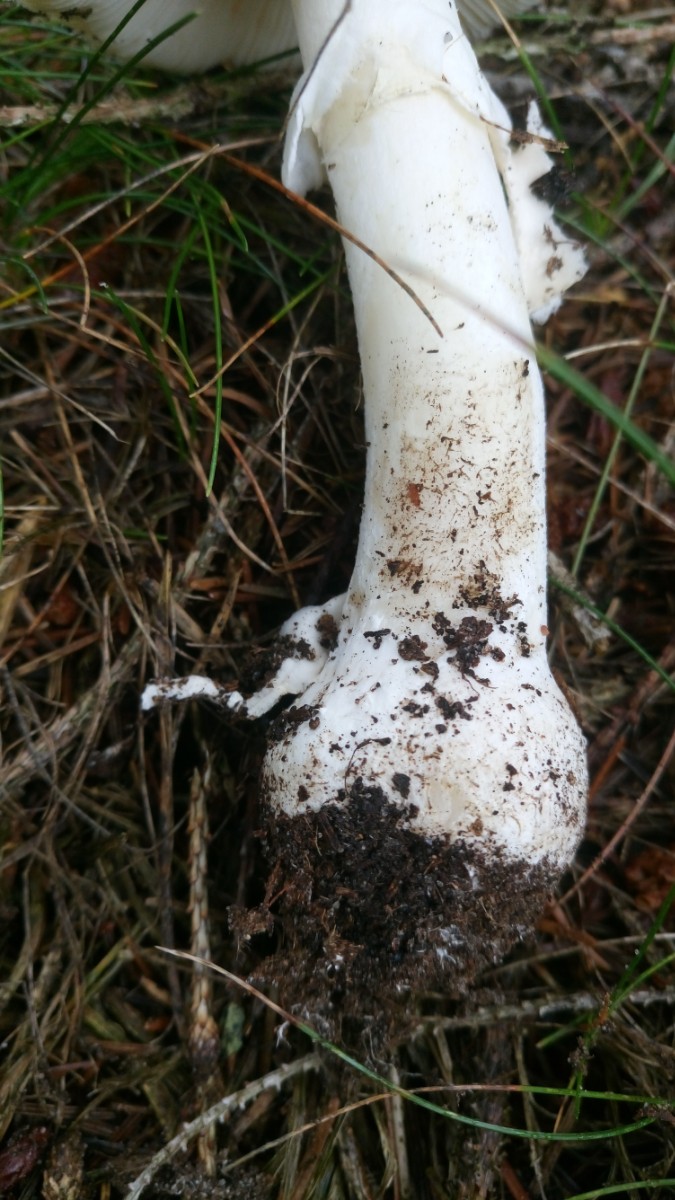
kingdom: Fungi
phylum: Basidiomycota
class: Agaricomycetes
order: Agaricales
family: Amanitaceae
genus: Amanita
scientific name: Amanita gemmata
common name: okkergul fluesvamp
